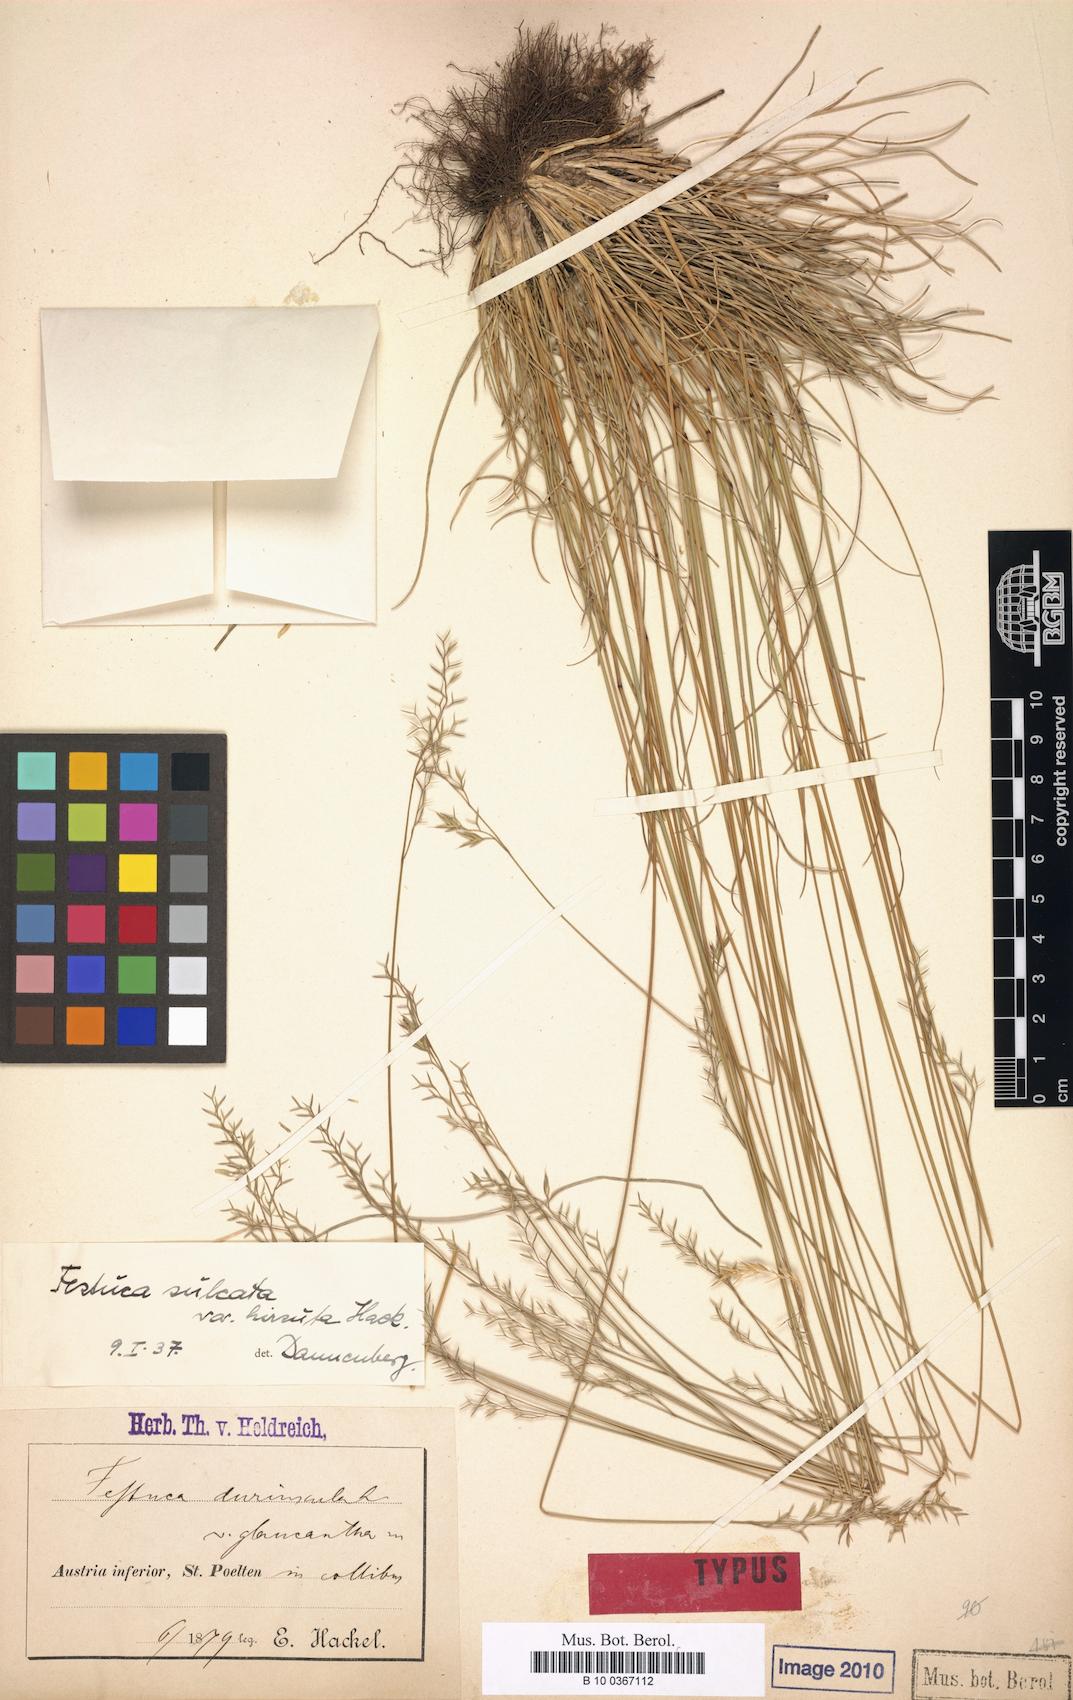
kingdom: Plantae
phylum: Tracheophyta
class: Liliopsida
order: Poales
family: Poaceae
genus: Festuca
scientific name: Festuca ovina
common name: Sheep fescue
